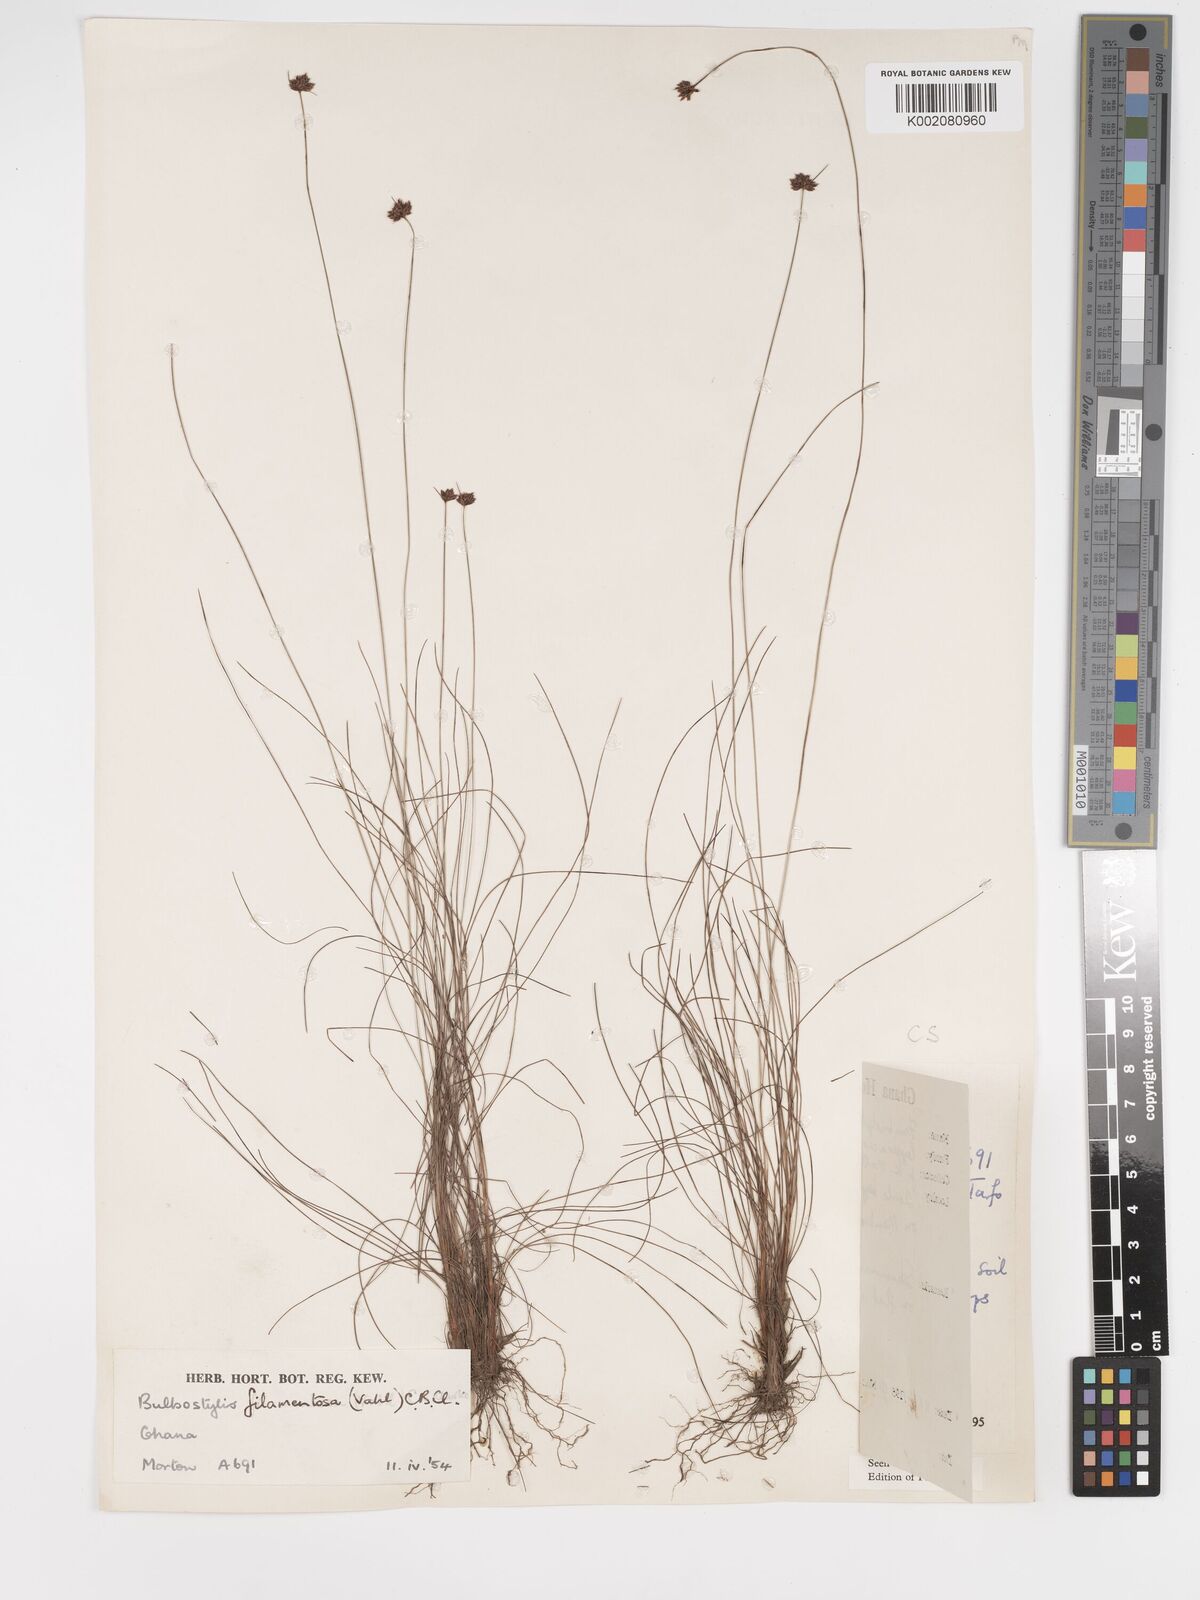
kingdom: Plantae
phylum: Tracheophyta
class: Liliopsida
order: Poales
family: Cyperaceae
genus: Bulbostylis
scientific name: Bulbostylis filamentosa
